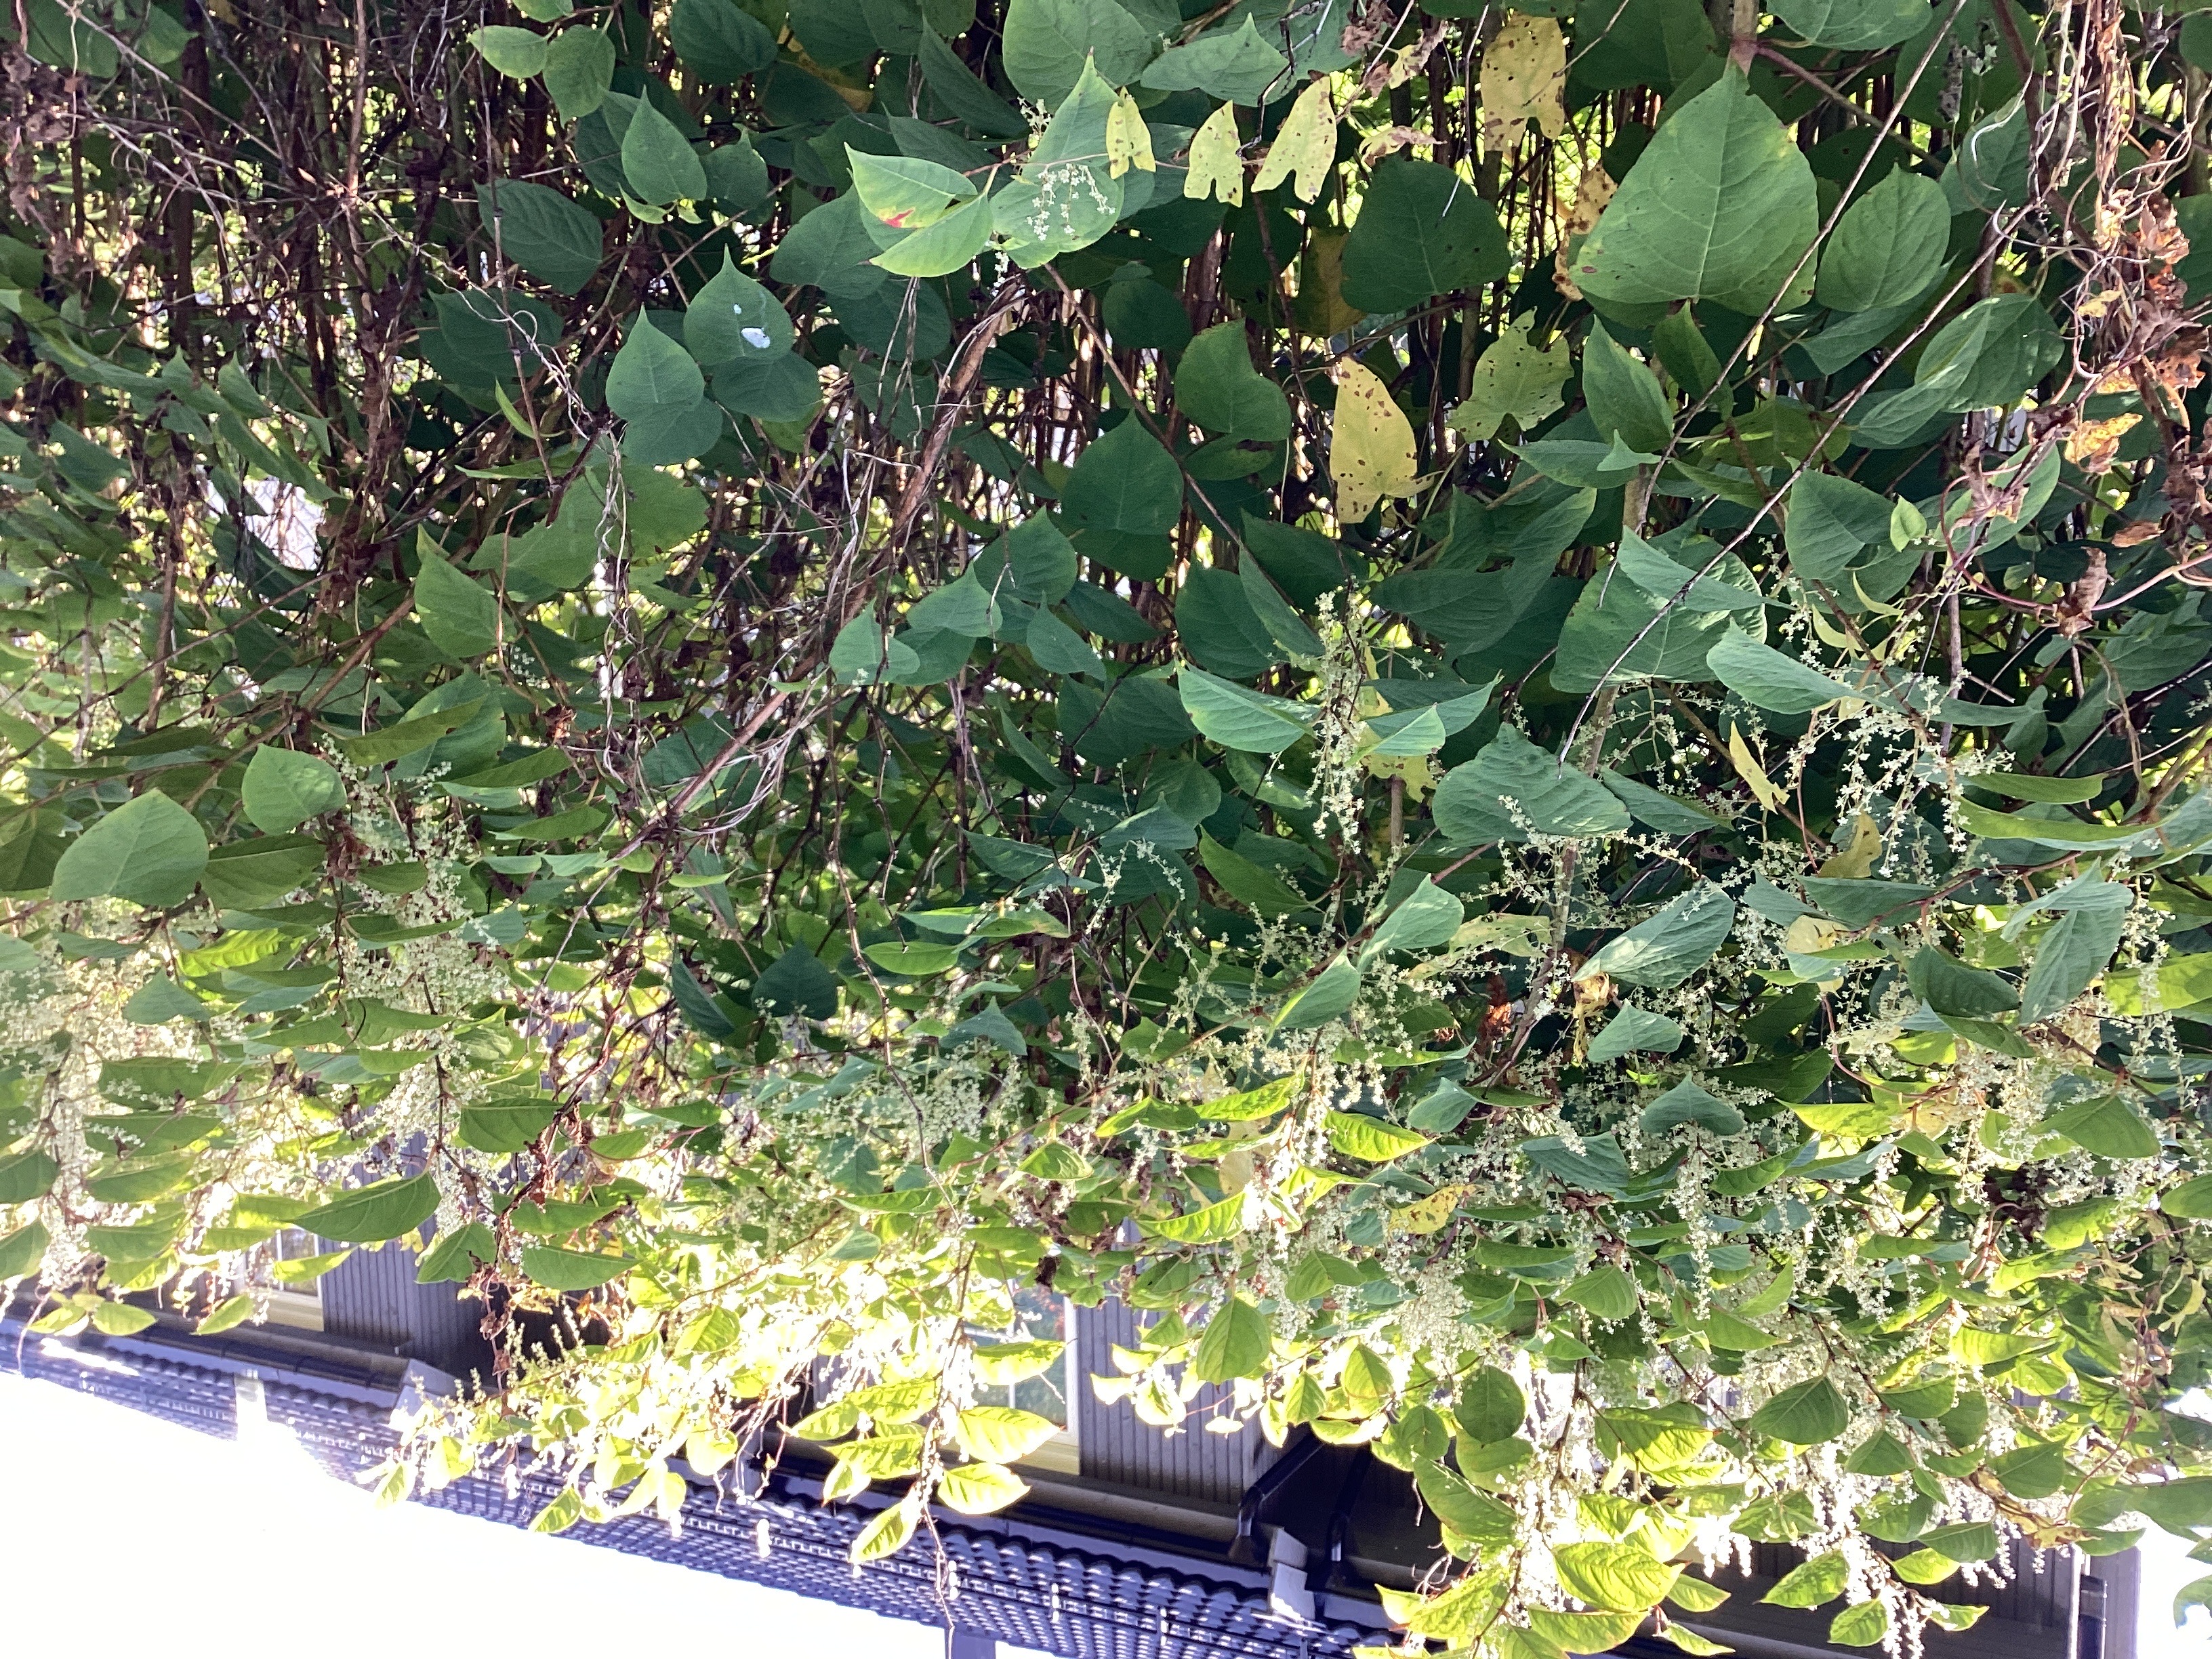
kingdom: Plantae
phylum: Tracheophyta
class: Magnoliopsida
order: Caryophyllales
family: Polygonaceae
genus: Reynoutria
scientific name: Reynoutria bohemica
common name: hybridslirekne
